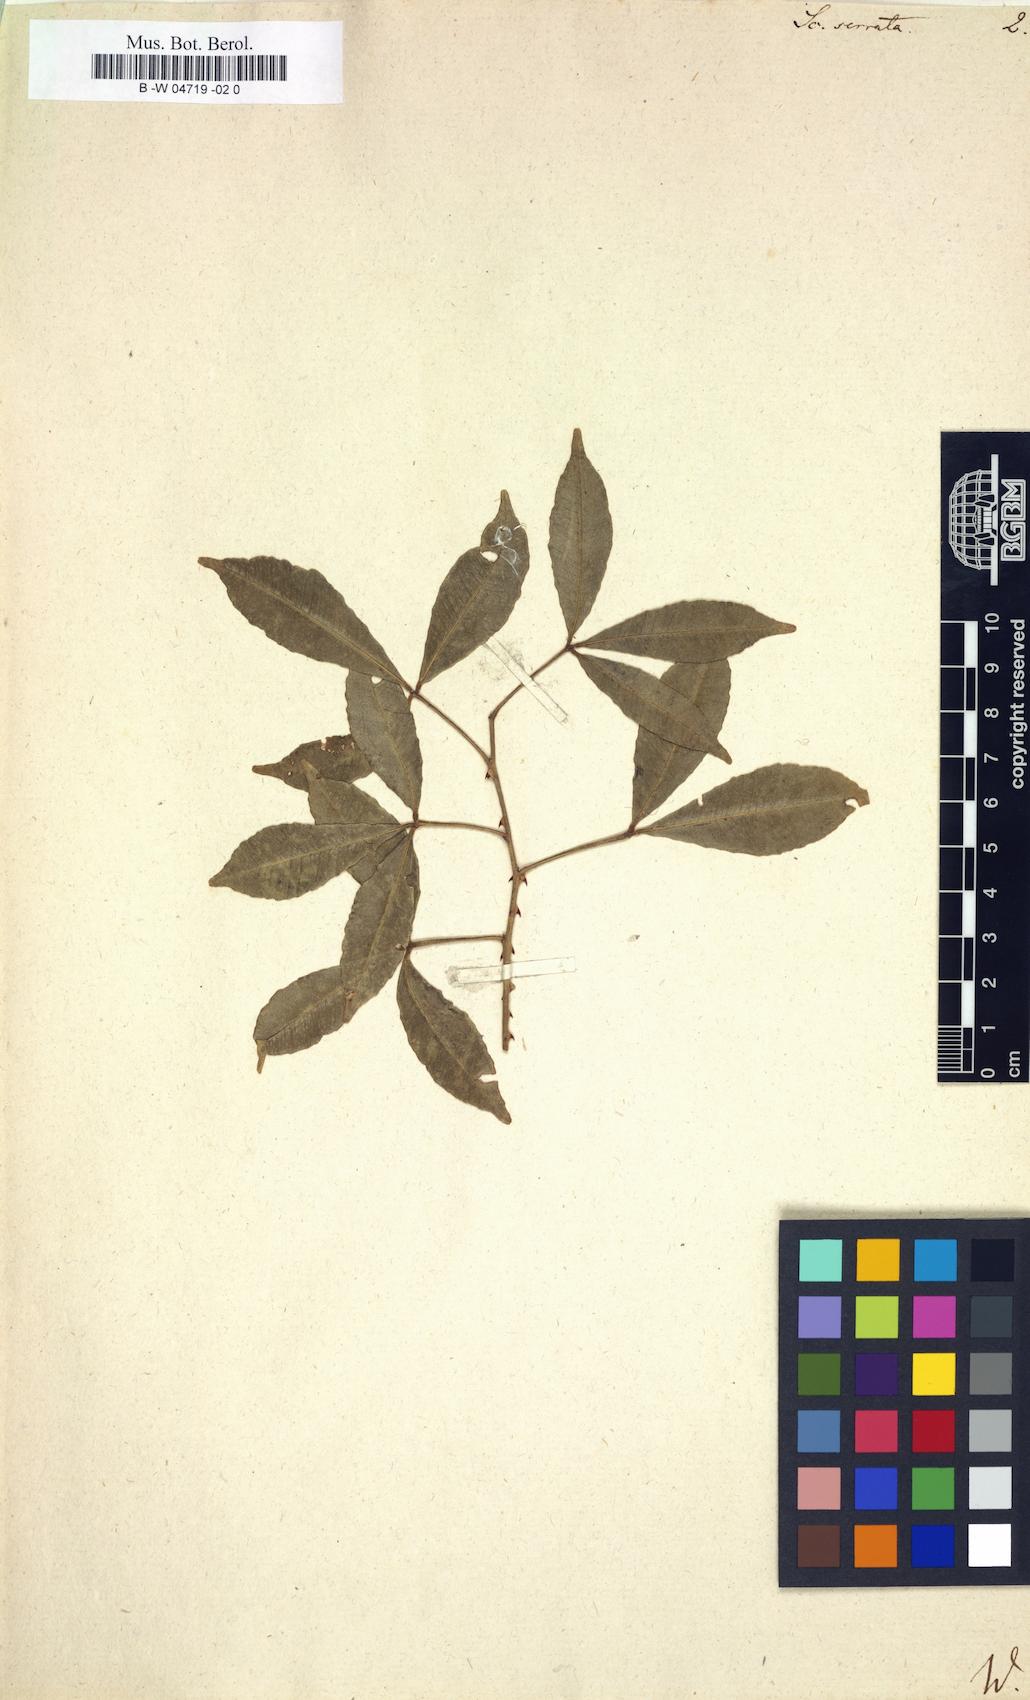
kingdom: Plantae
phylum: Tracheophyta
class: Magnoliopsida
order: Solanales
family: Solanaceae
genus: Scopolia
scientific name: Scopolia
